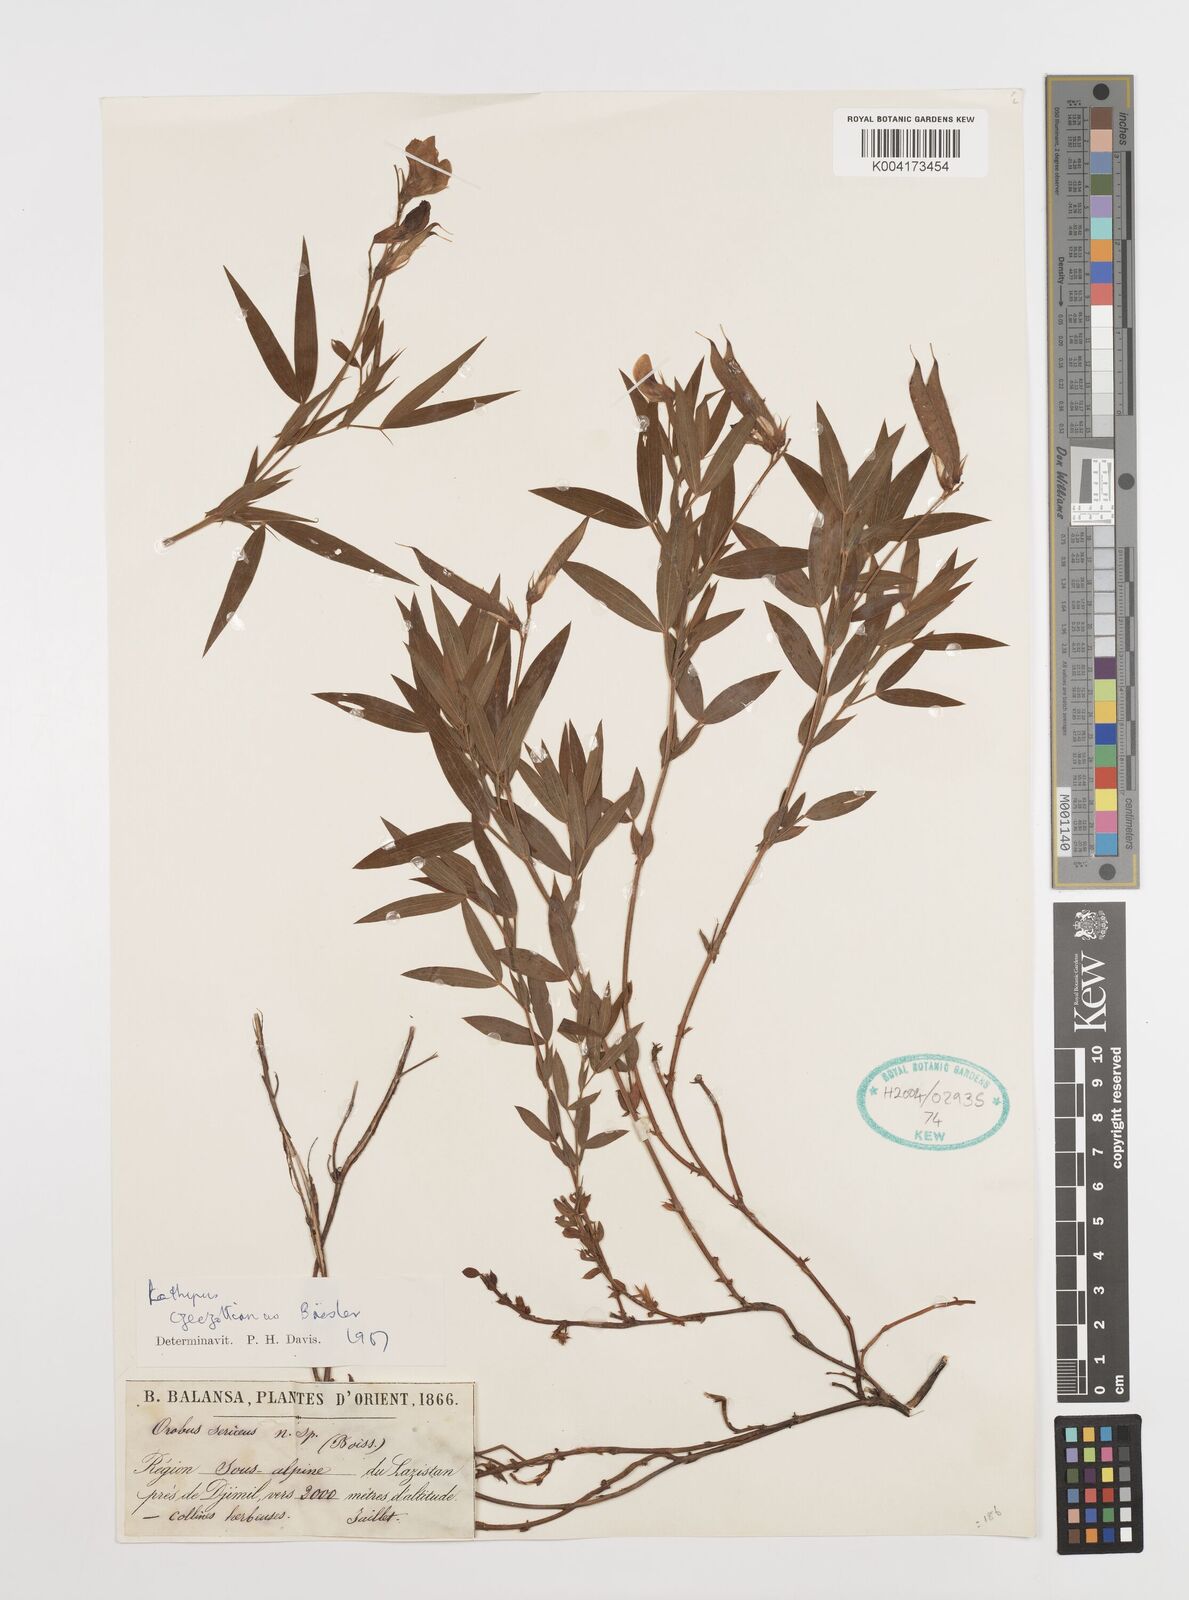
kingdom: Plantae
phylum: Tracheophyta
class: Magnoliopsida
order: Fabales
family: Fabaceae
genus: Lathyrus
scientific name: Lathyrus czeczottianus
